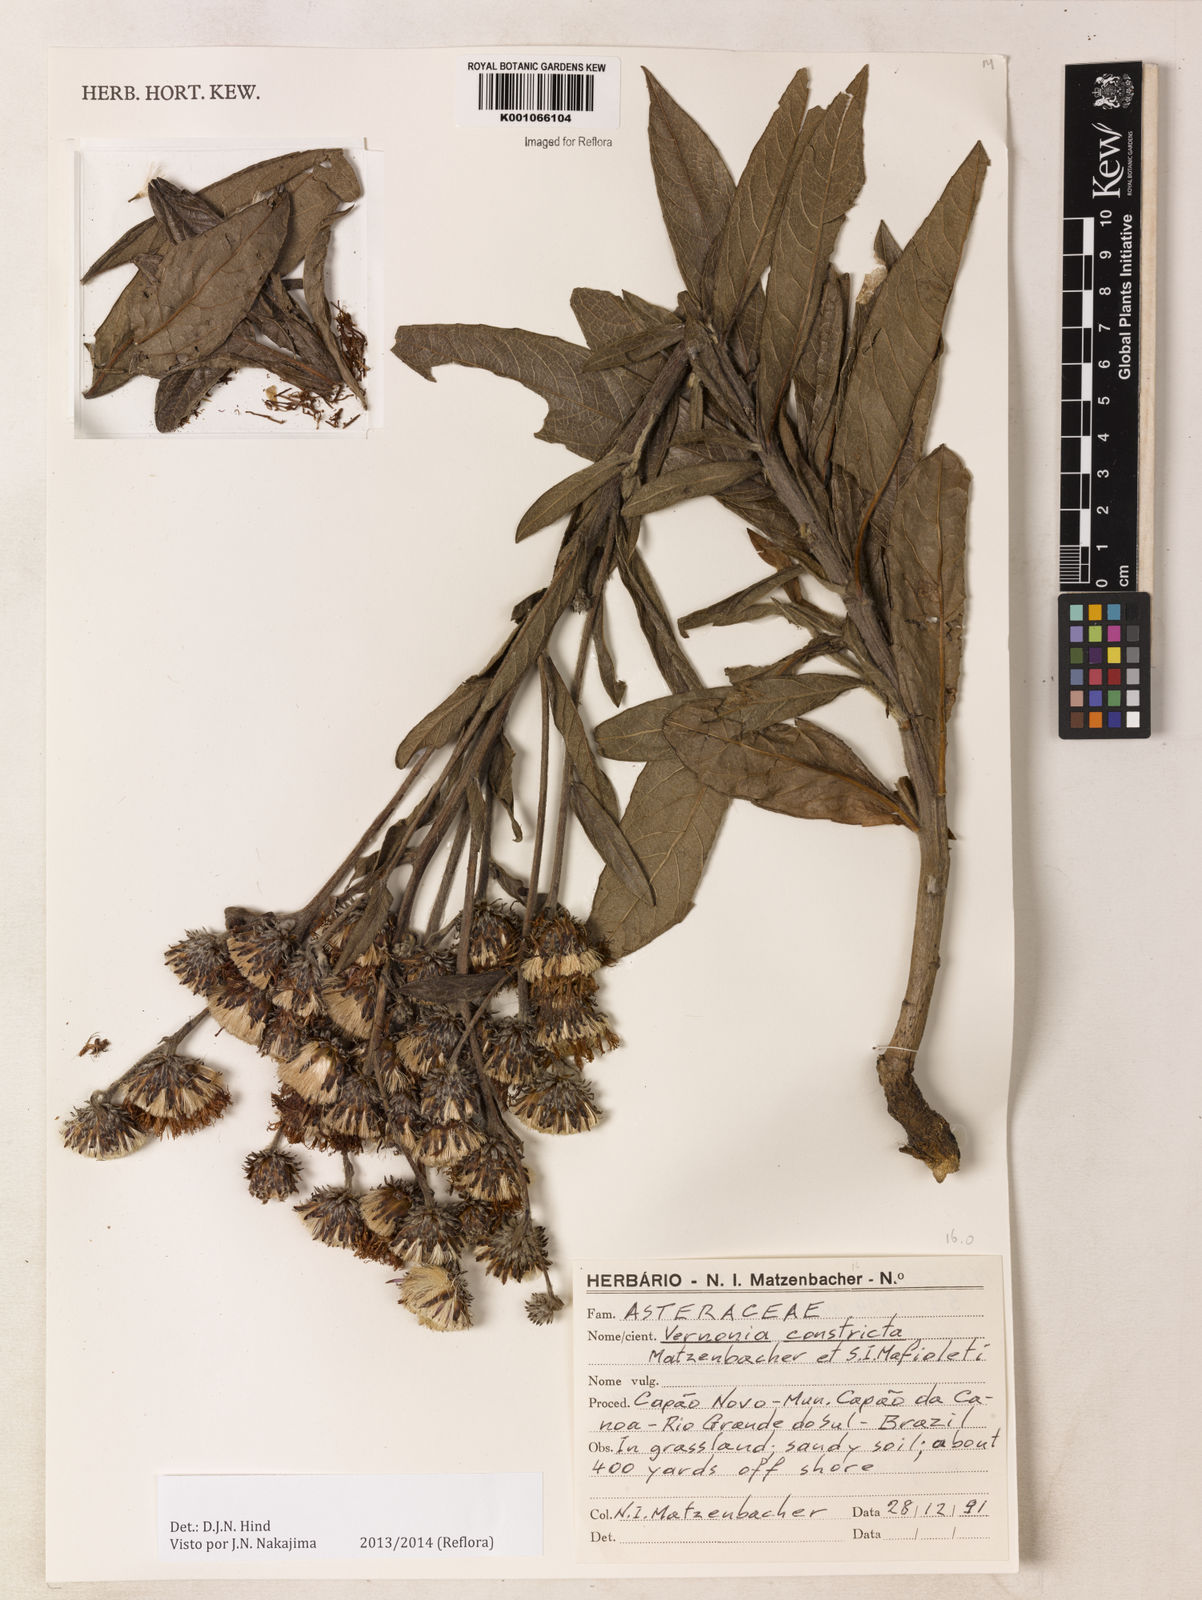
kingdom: Plantae
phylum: Tracheophyta
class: Magnoliopsida
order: Asterales
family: Asteraceae
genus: Lessingianthus
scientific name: Lessingianthus constrictus
